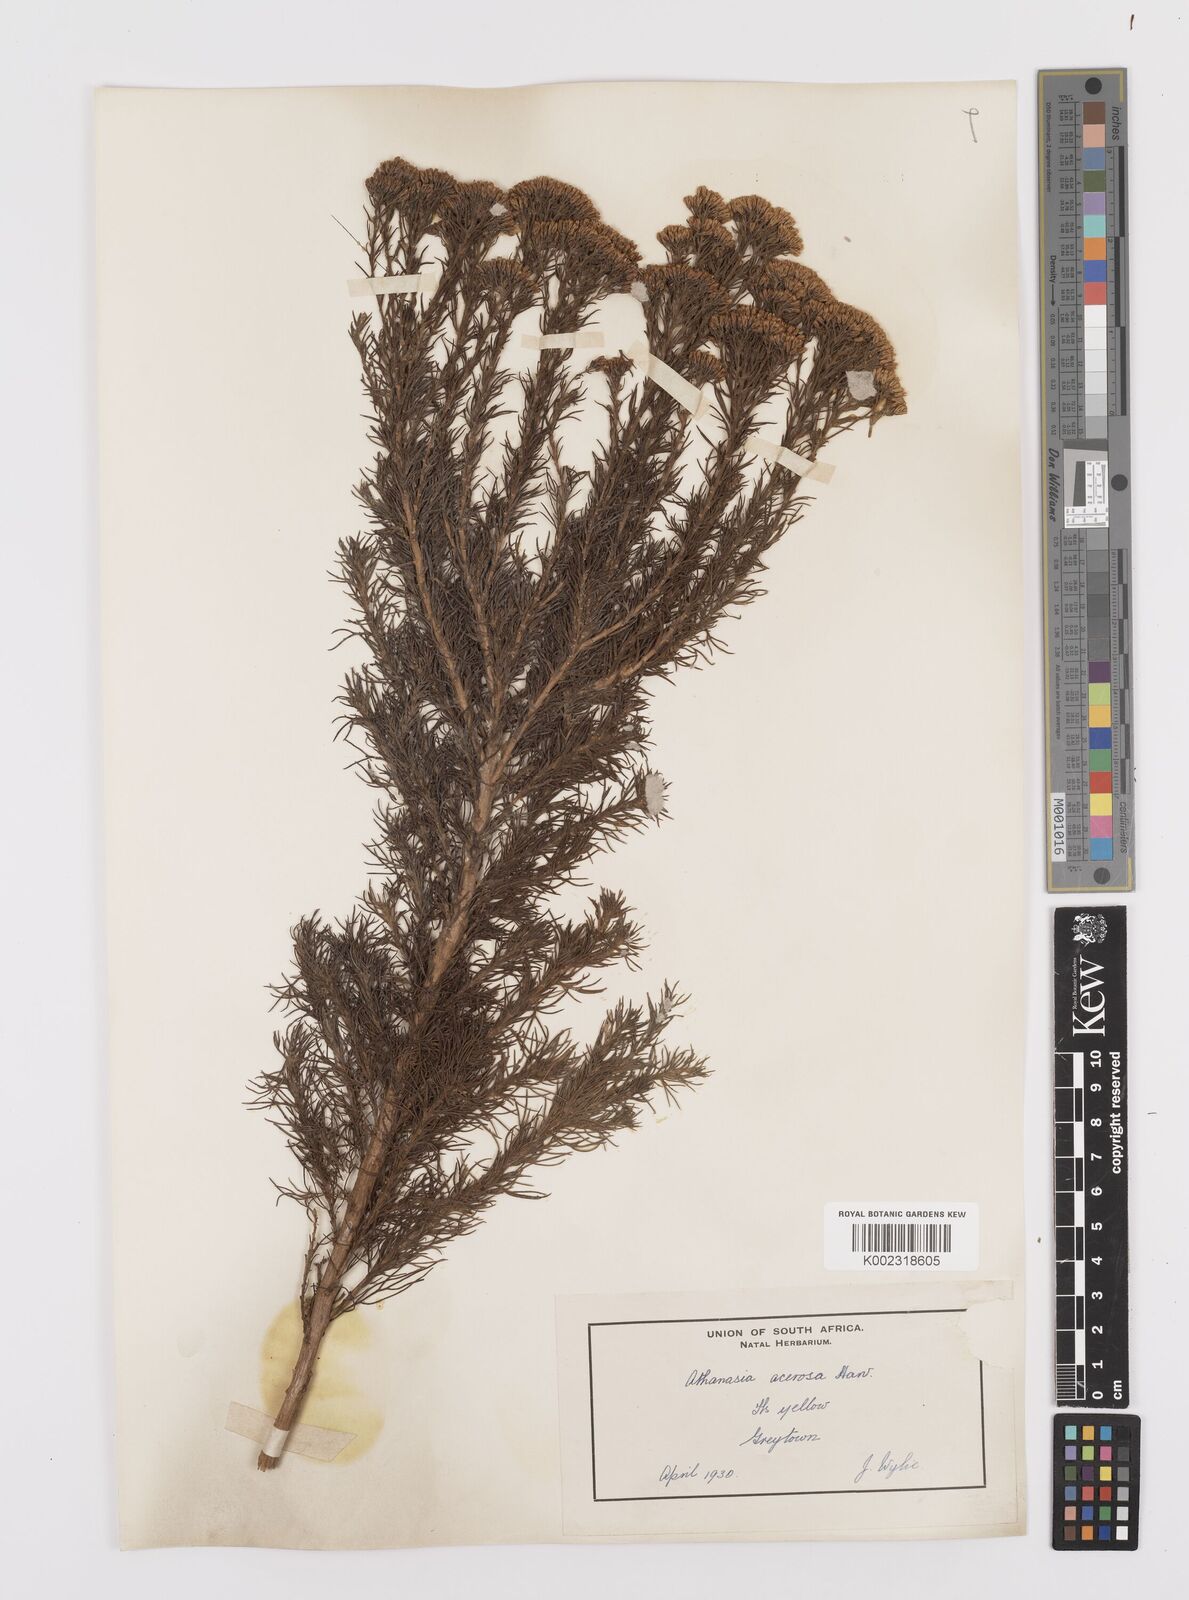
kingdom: Plantae
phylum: Tracheophyta
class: Magnoliopsida
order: Asterales
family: Asteraceae
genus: Phymaspermum
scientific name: Phymaspermum acerosum
